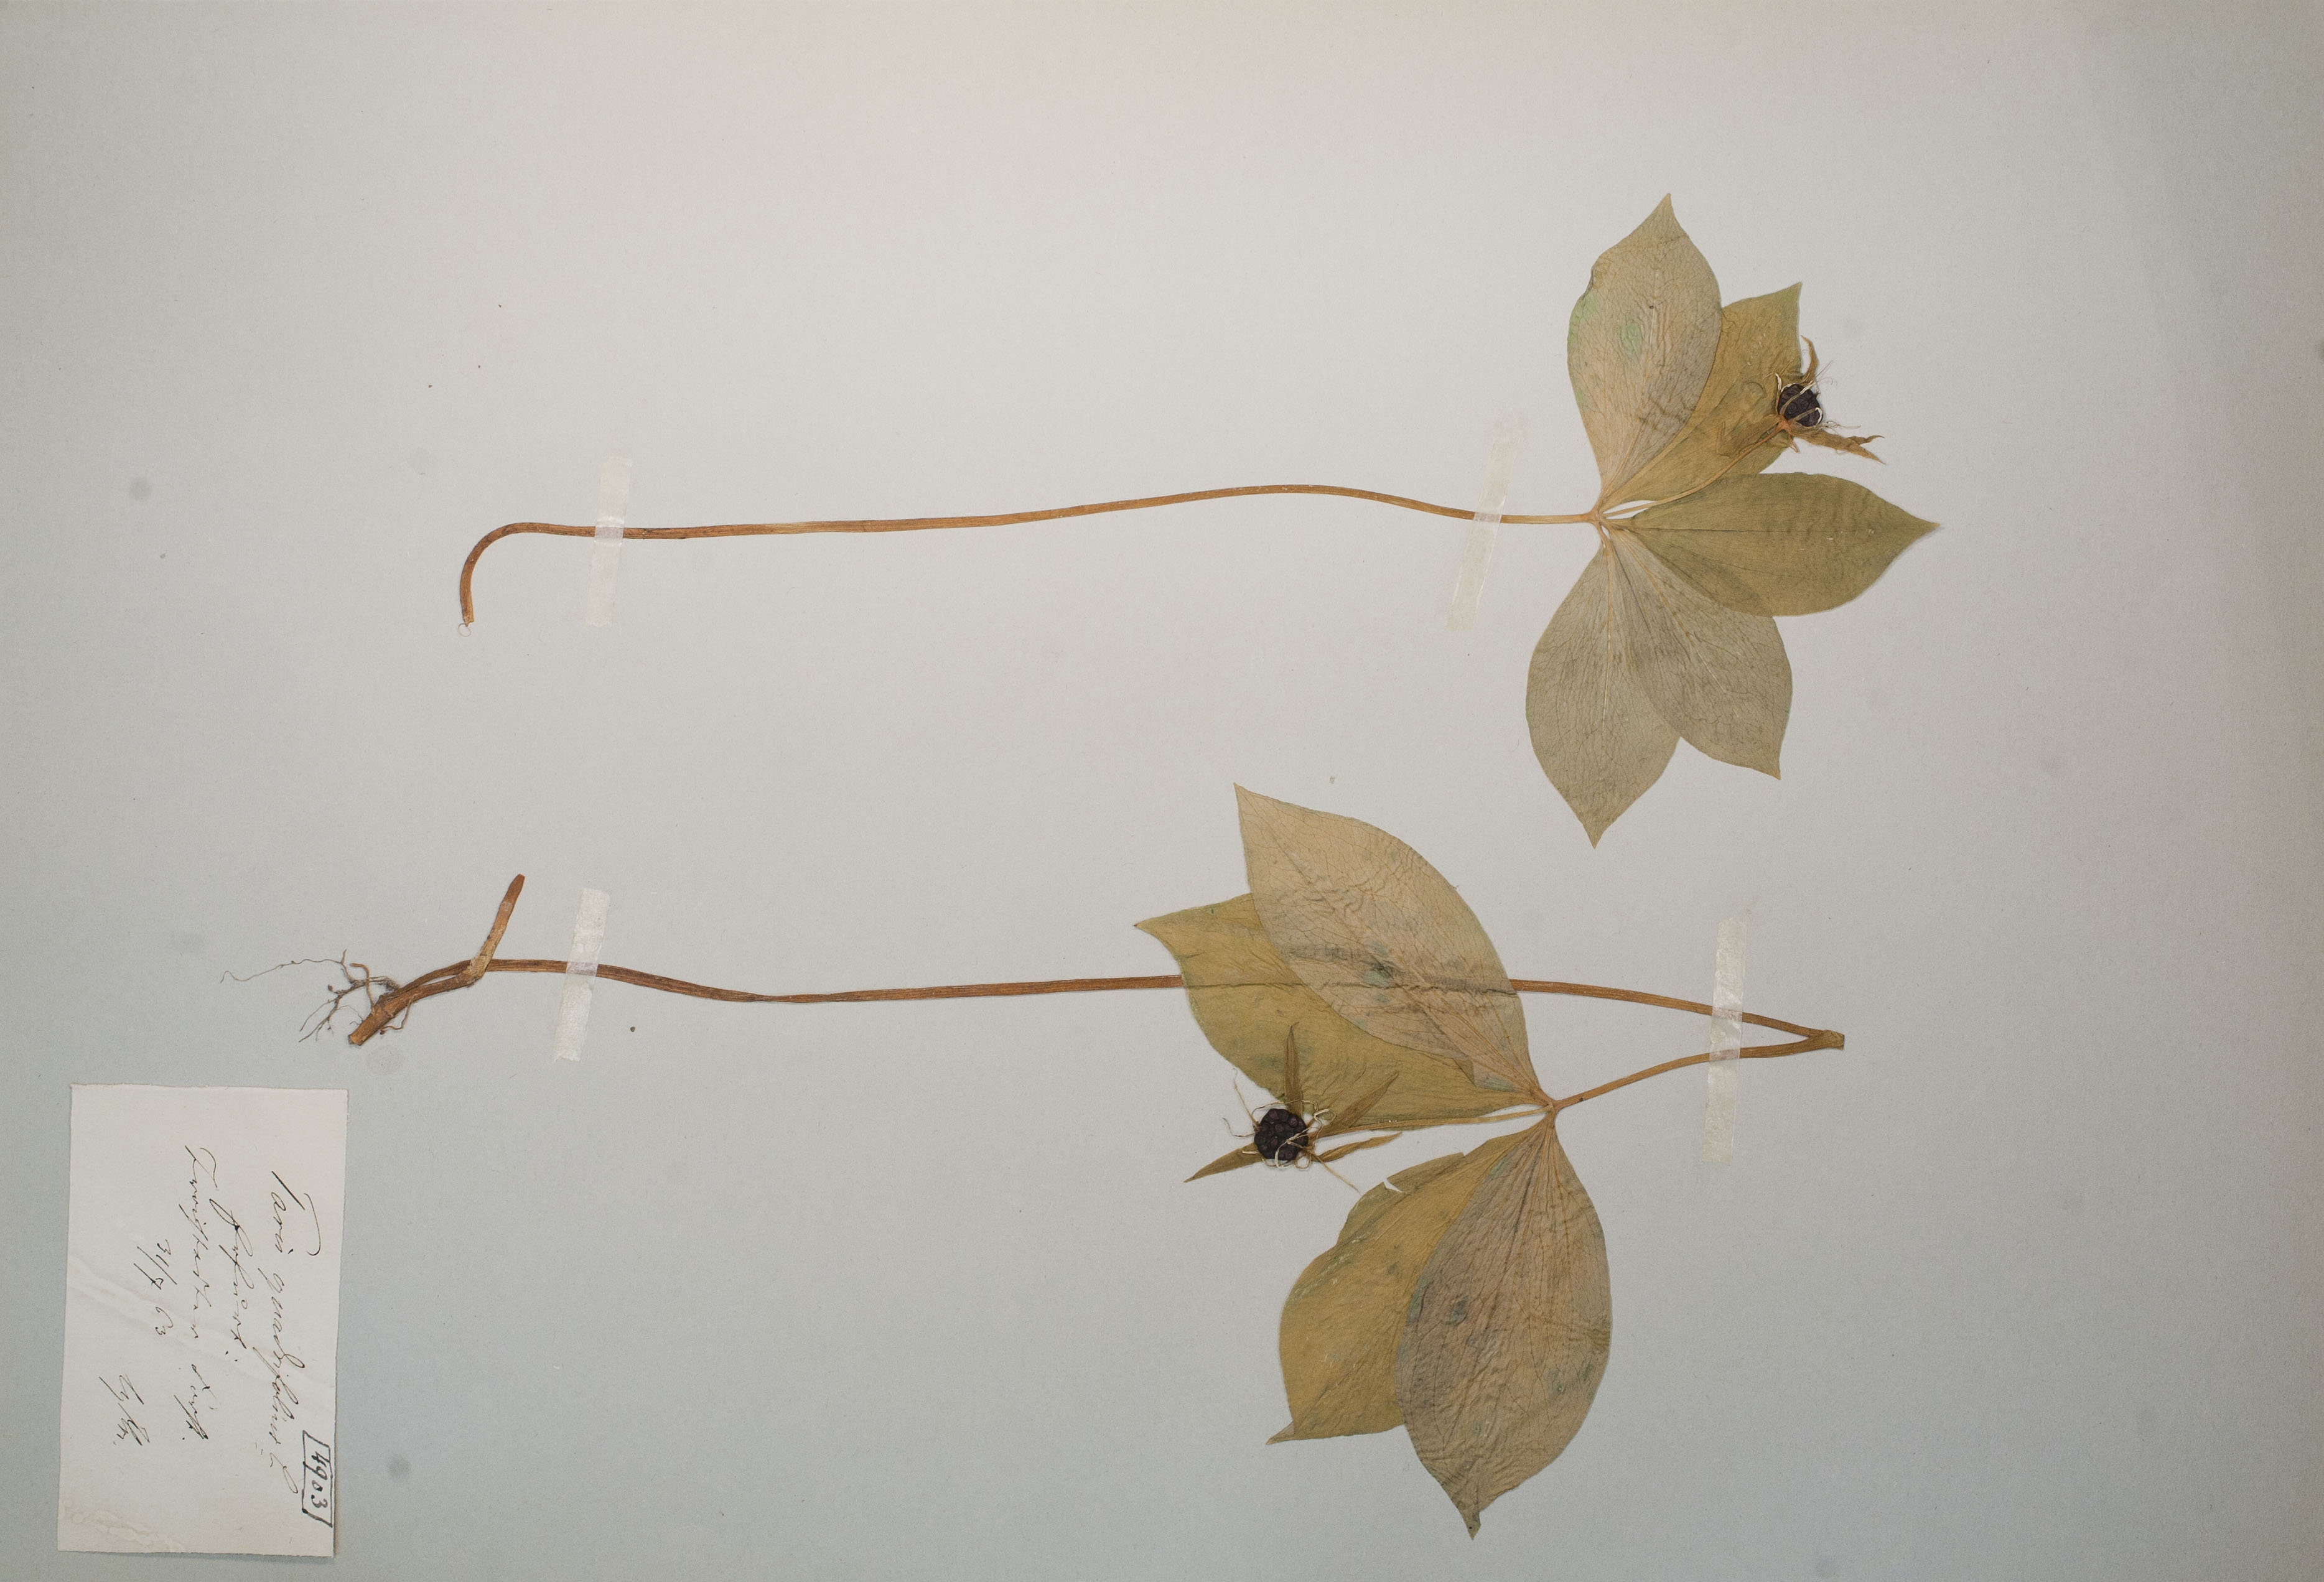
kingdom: Plantae
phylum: Tracheophyta
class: Liliopsida
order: Liliales
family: Melanthiaceae
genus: Paris
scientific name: Paris quadrifolia
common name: Herb-paris
